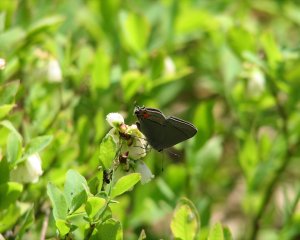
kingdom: Animalia
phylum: Arthropoda
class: Insecta
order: Lepidoptera
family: Lycaenidae
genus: Strymon
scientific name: Strymon melinus
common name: Gray Hairstreak
